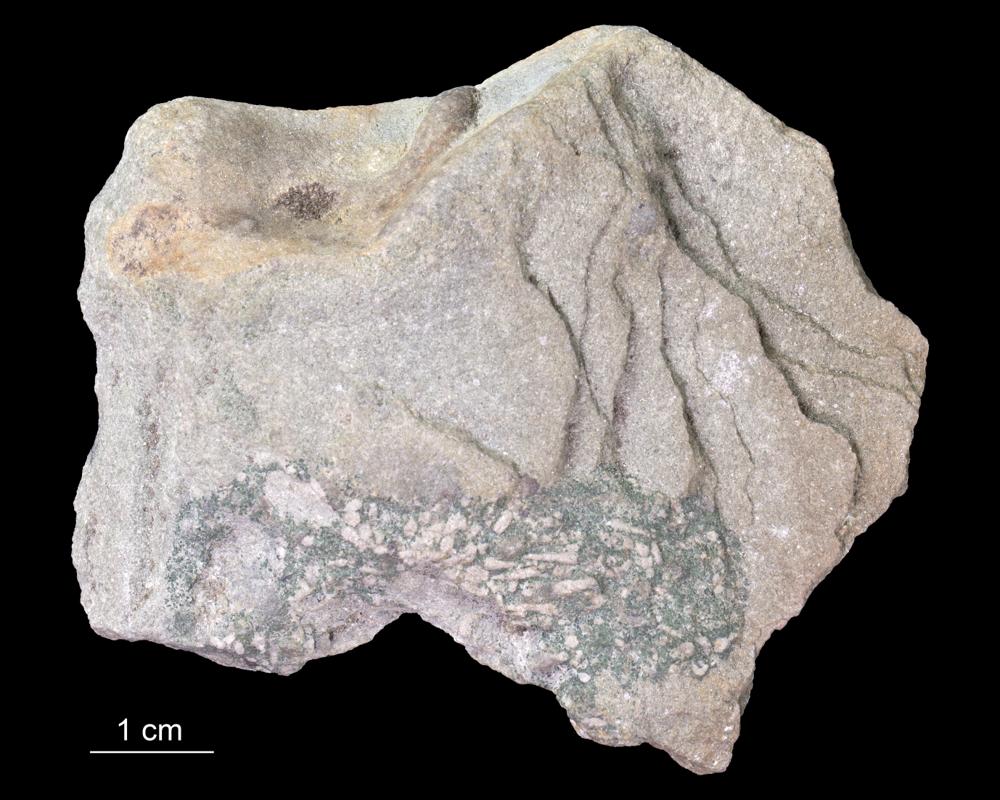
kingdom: Animalia
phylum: Annelida
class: Polychaeta
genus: Volborthella
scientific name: Volborthella tenuis
